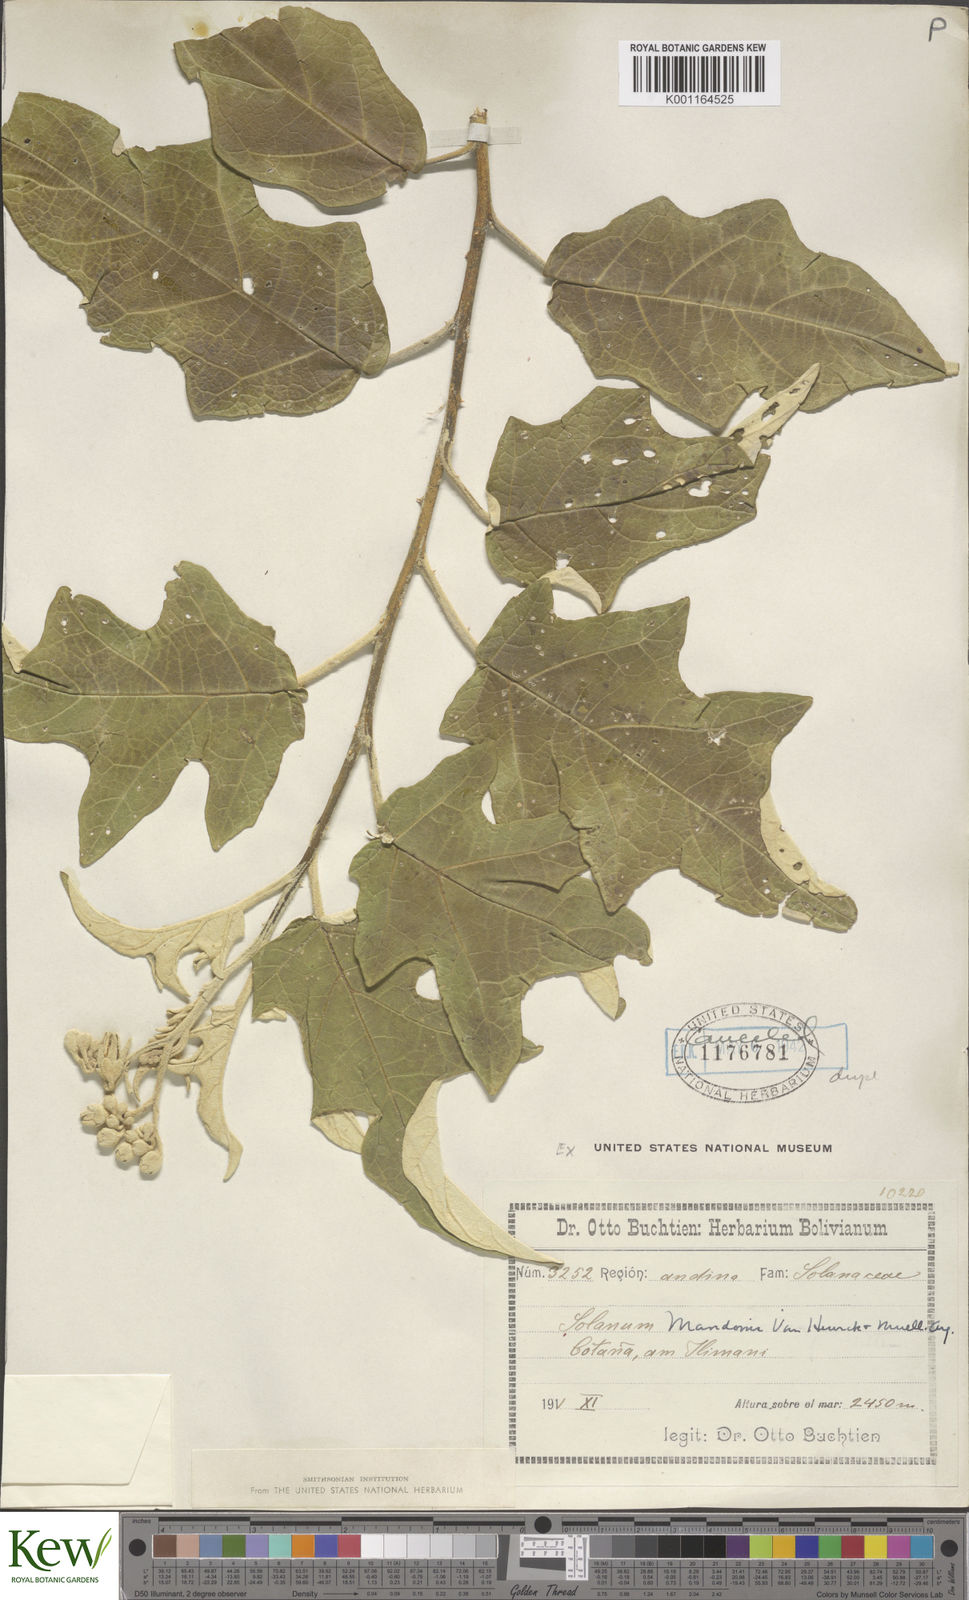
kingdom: Plantae
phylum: Tracheophyta
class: Magnoliopsida
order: Solanales
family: Solanaceae
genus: Solanum
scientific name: Solanum albidum
